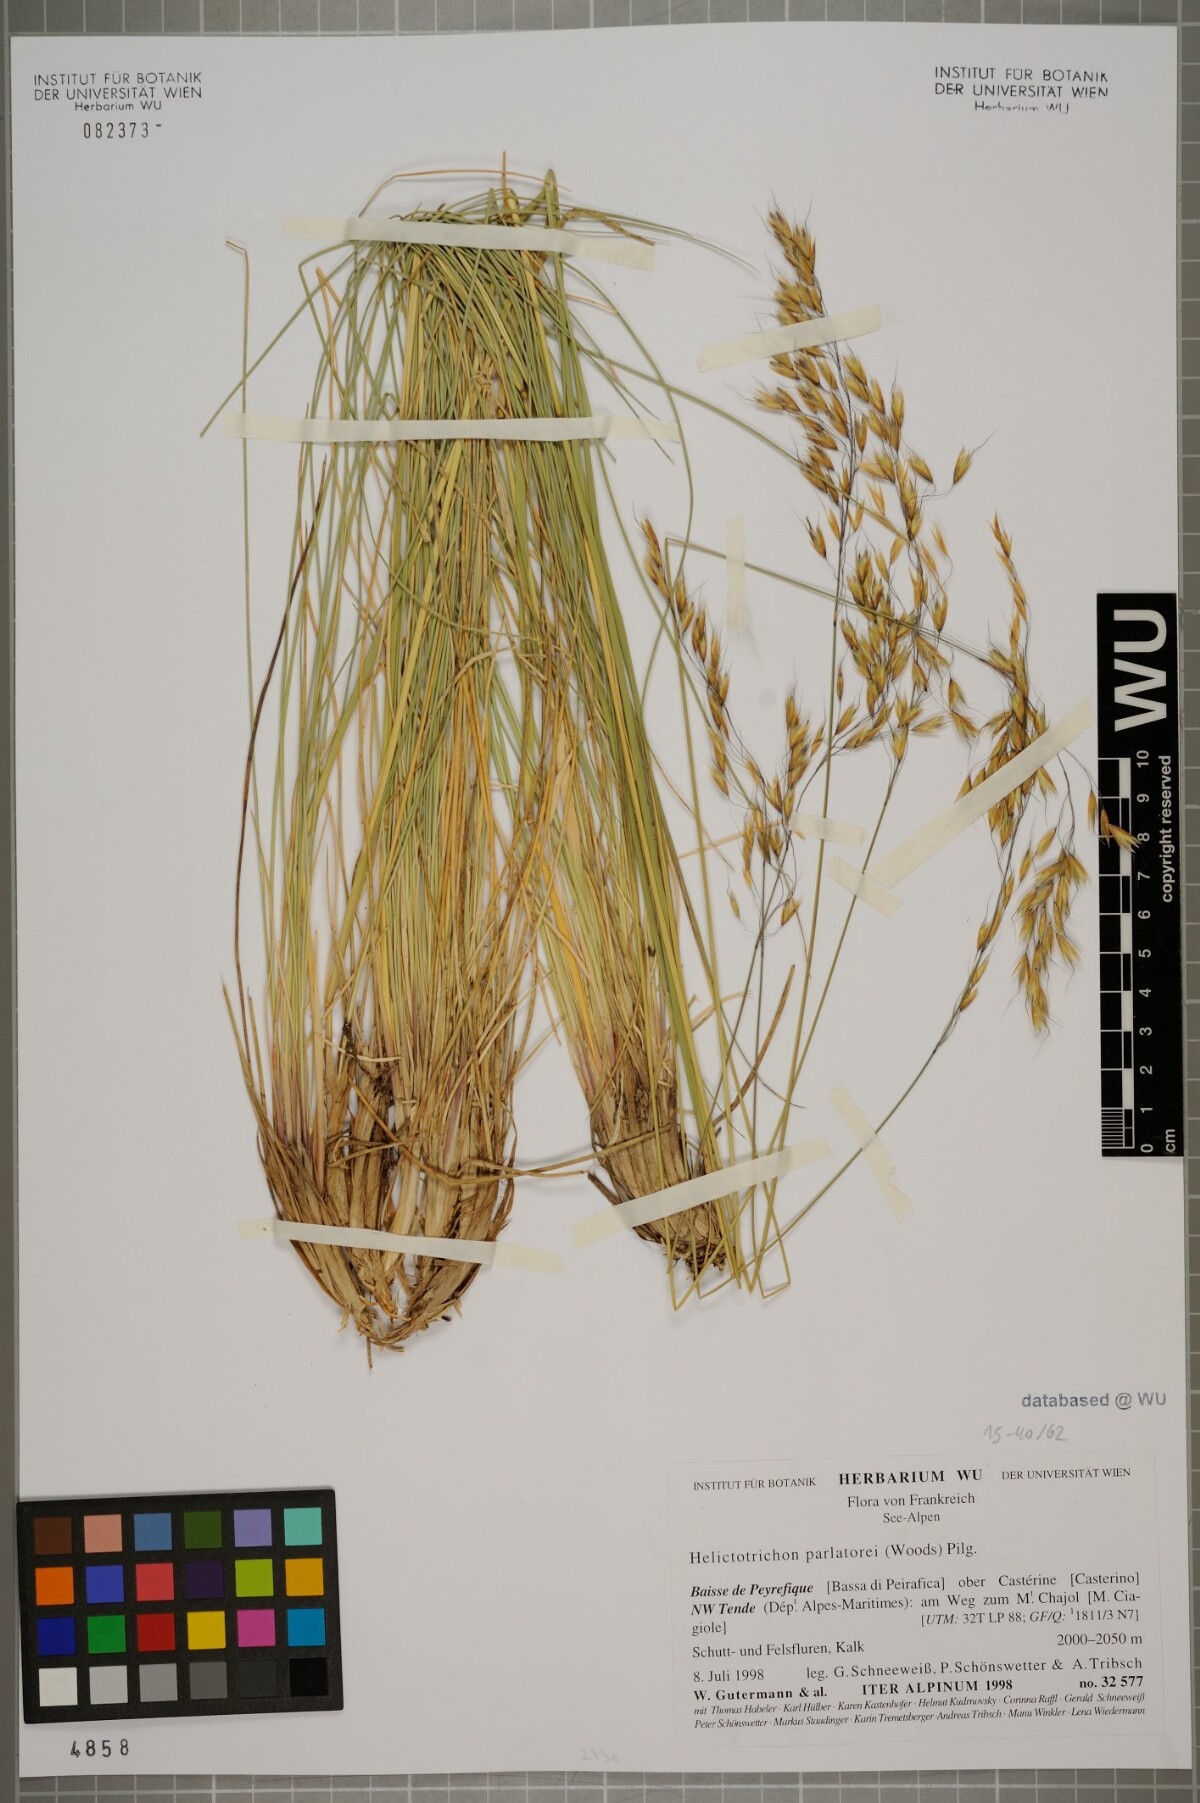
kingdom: Plantae
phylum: Tracheophyta
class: Liliopsida
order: Poales
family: Poaceae
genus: Helictotrichon
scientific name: Helictotrichon parlatorei
